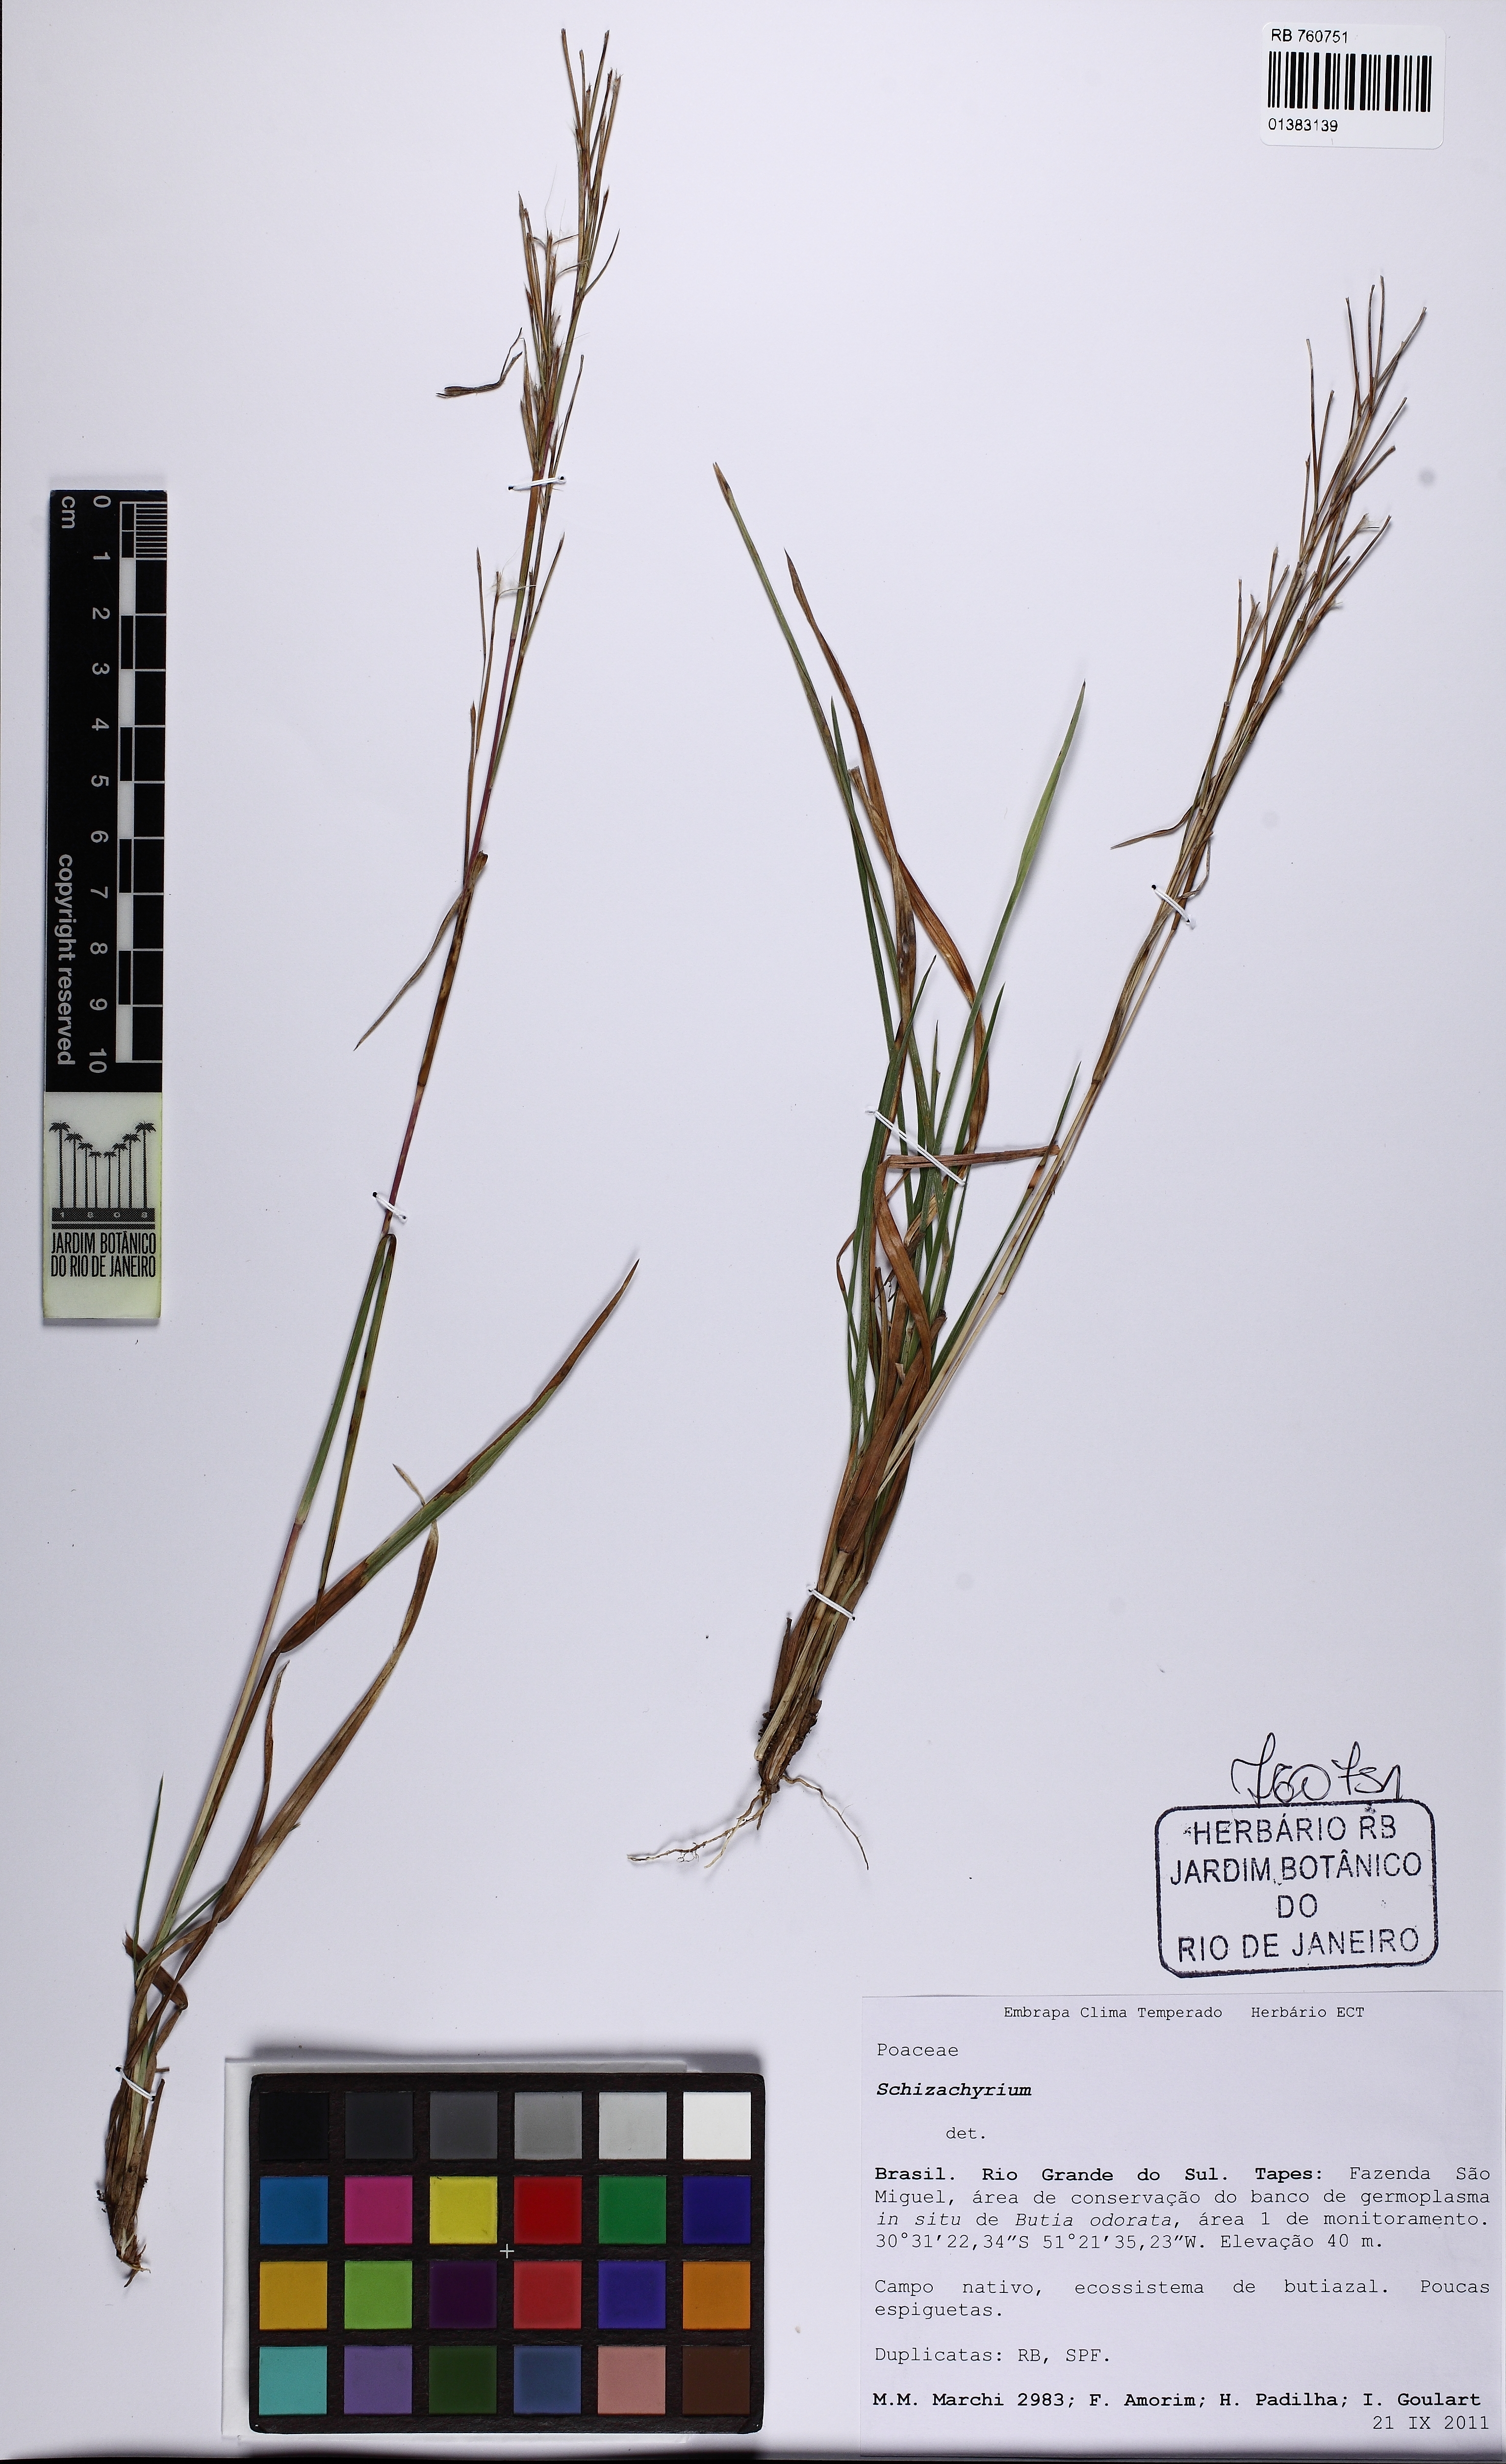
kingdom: Plantae
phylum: Tracheophyta
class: Liliopsida
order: Poales
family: Poaceae
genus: Schizachyrium
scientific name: Schizachyrium
